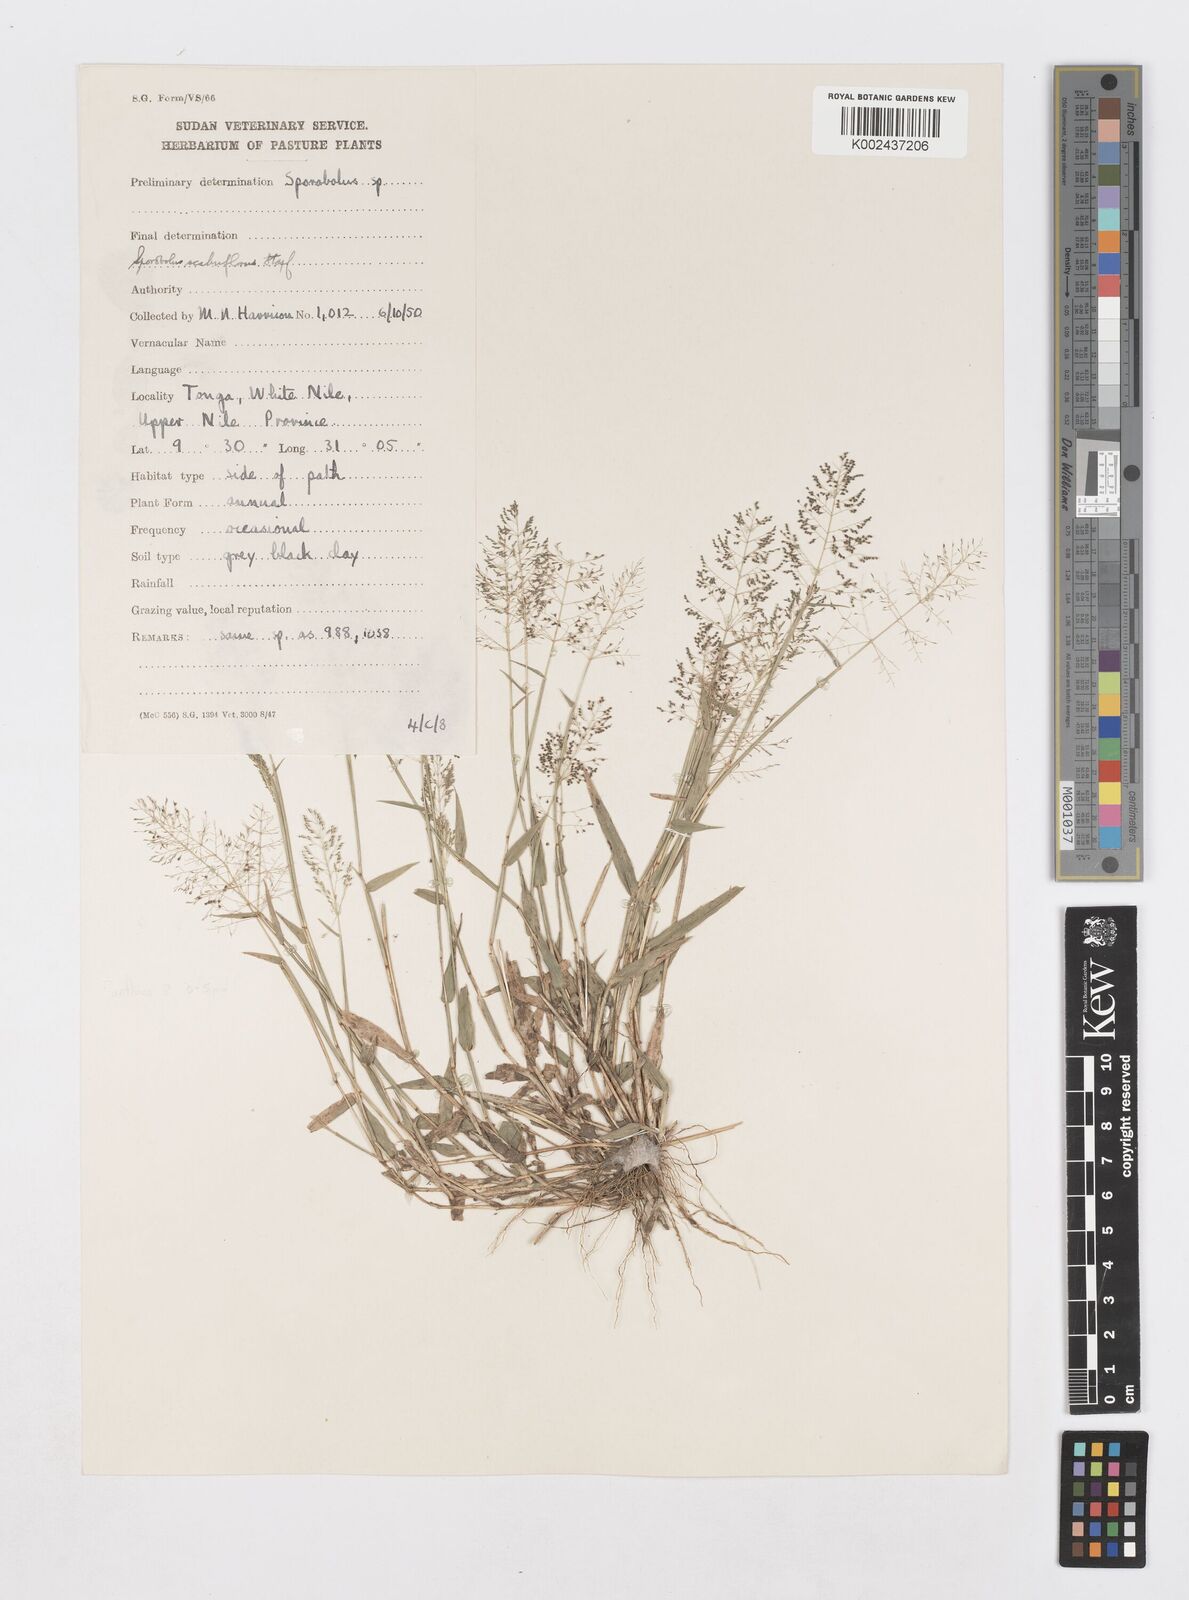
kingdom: Plantae
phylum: Tracheophyta
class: Liliopsida
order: Poales
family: Poaceae
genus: Sporobolus
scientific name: Sporobolus microprotus
